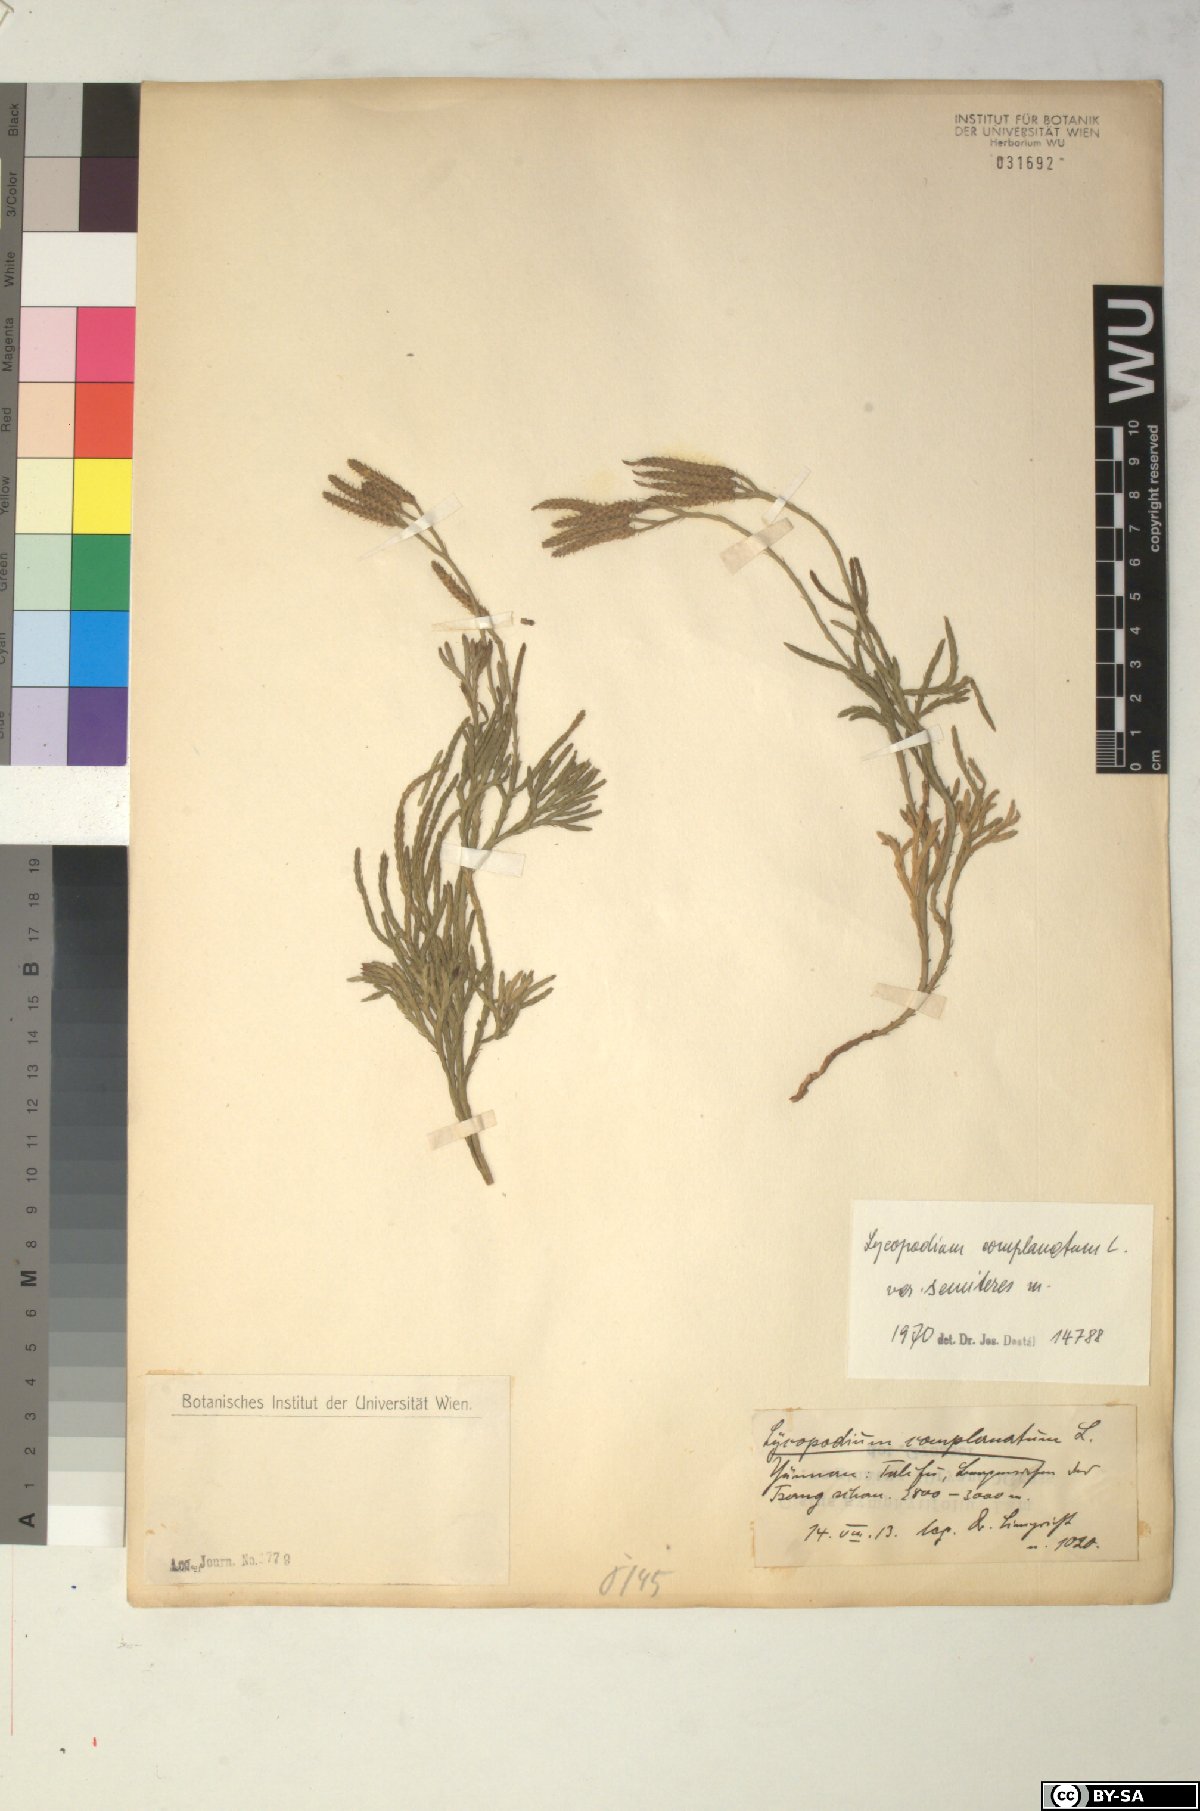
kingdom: Plantae
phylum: Tracheophyta
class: Lycopodiopsida
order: Lycopodiales
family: Lycopodiaceae
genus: Diphasiastrum
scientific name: Diphasiastrum complanatum
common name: Northern running-pine
